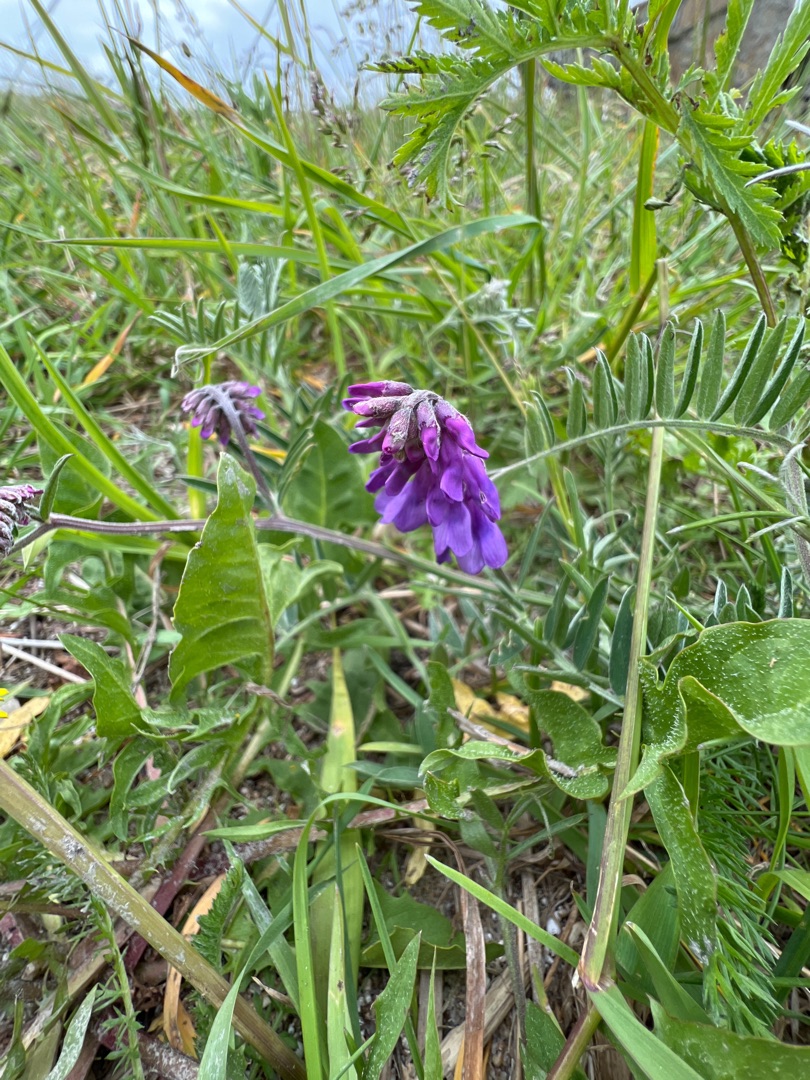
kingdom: Plantae
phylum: Tracheophyta
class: Magnoliopsida
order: Fabales
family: Fabaceae
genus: Vicia
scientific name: Vicia cracca
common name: Muse-vikke
